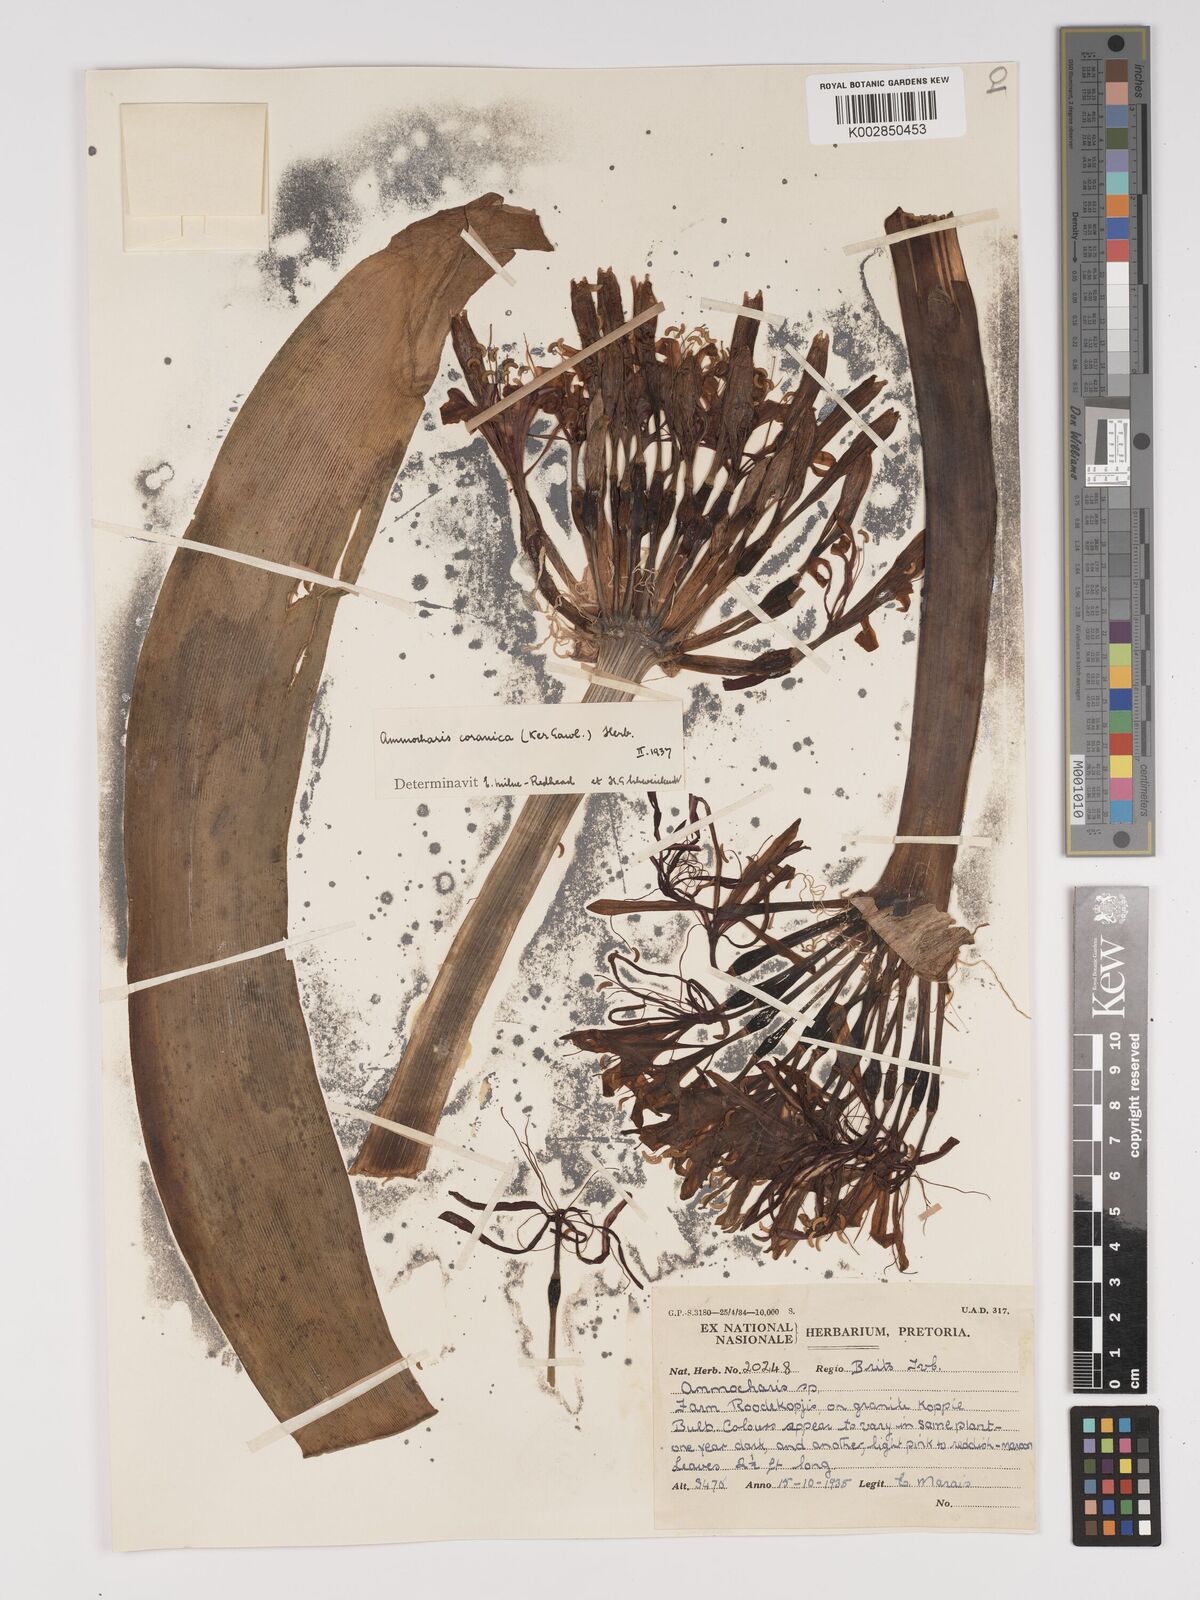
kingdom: Plantae
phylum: Tracheophyta
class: Liliopsida
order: Asparagales
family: Amaryllidaceae
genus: Ammocharis
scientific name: Ammocharis coranica
